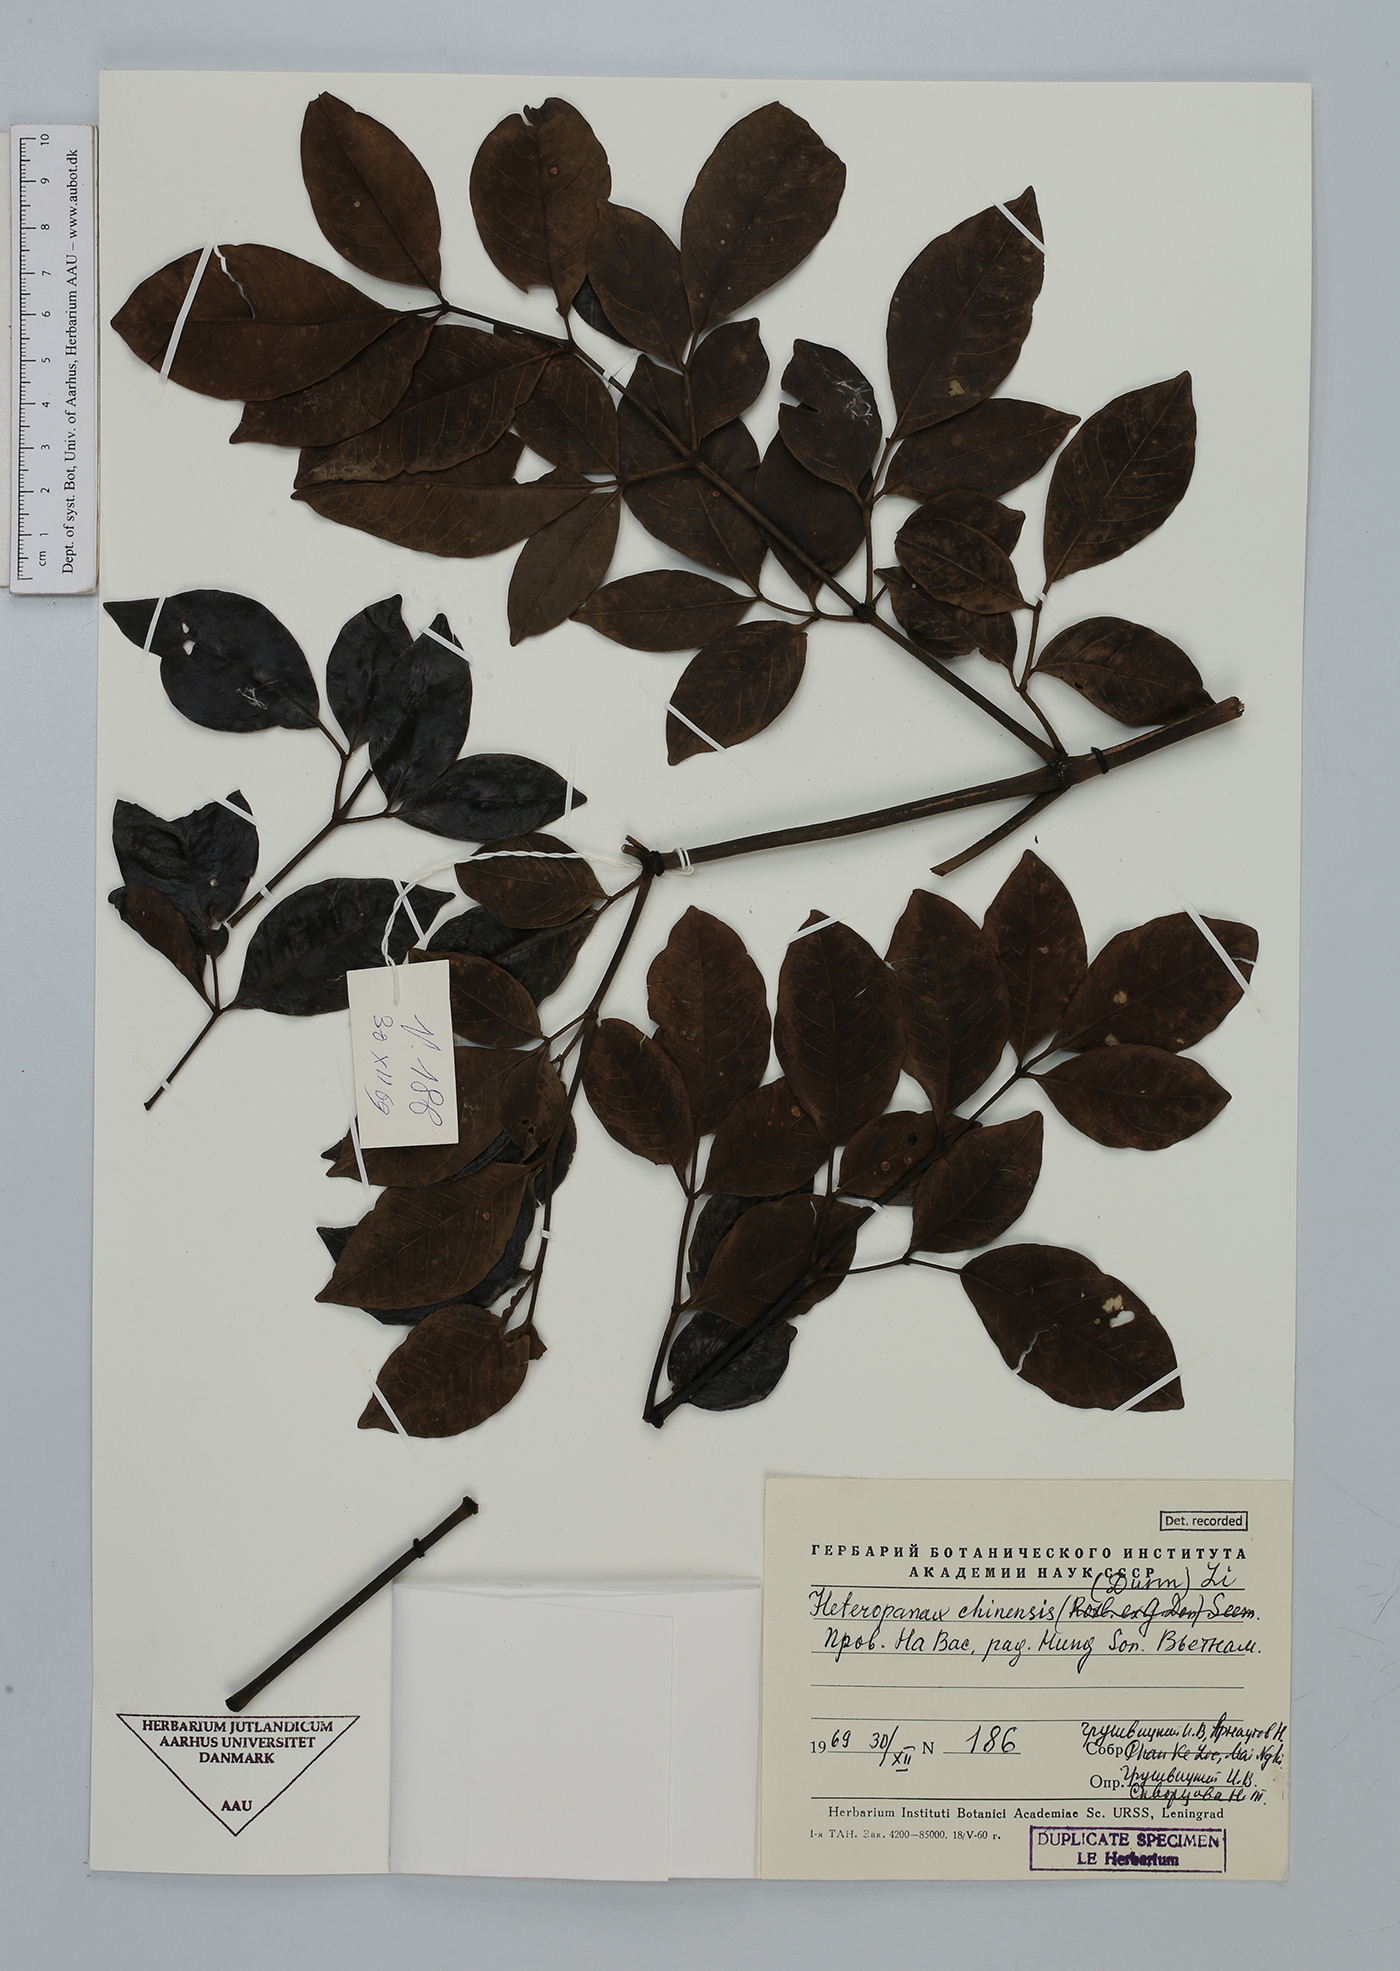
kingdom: Plantae
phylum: Tracheophyta
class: Magnoliopsida
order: Apiales
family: Araliaceae
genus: Heteropanax
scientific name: Heteropanax chinensis
